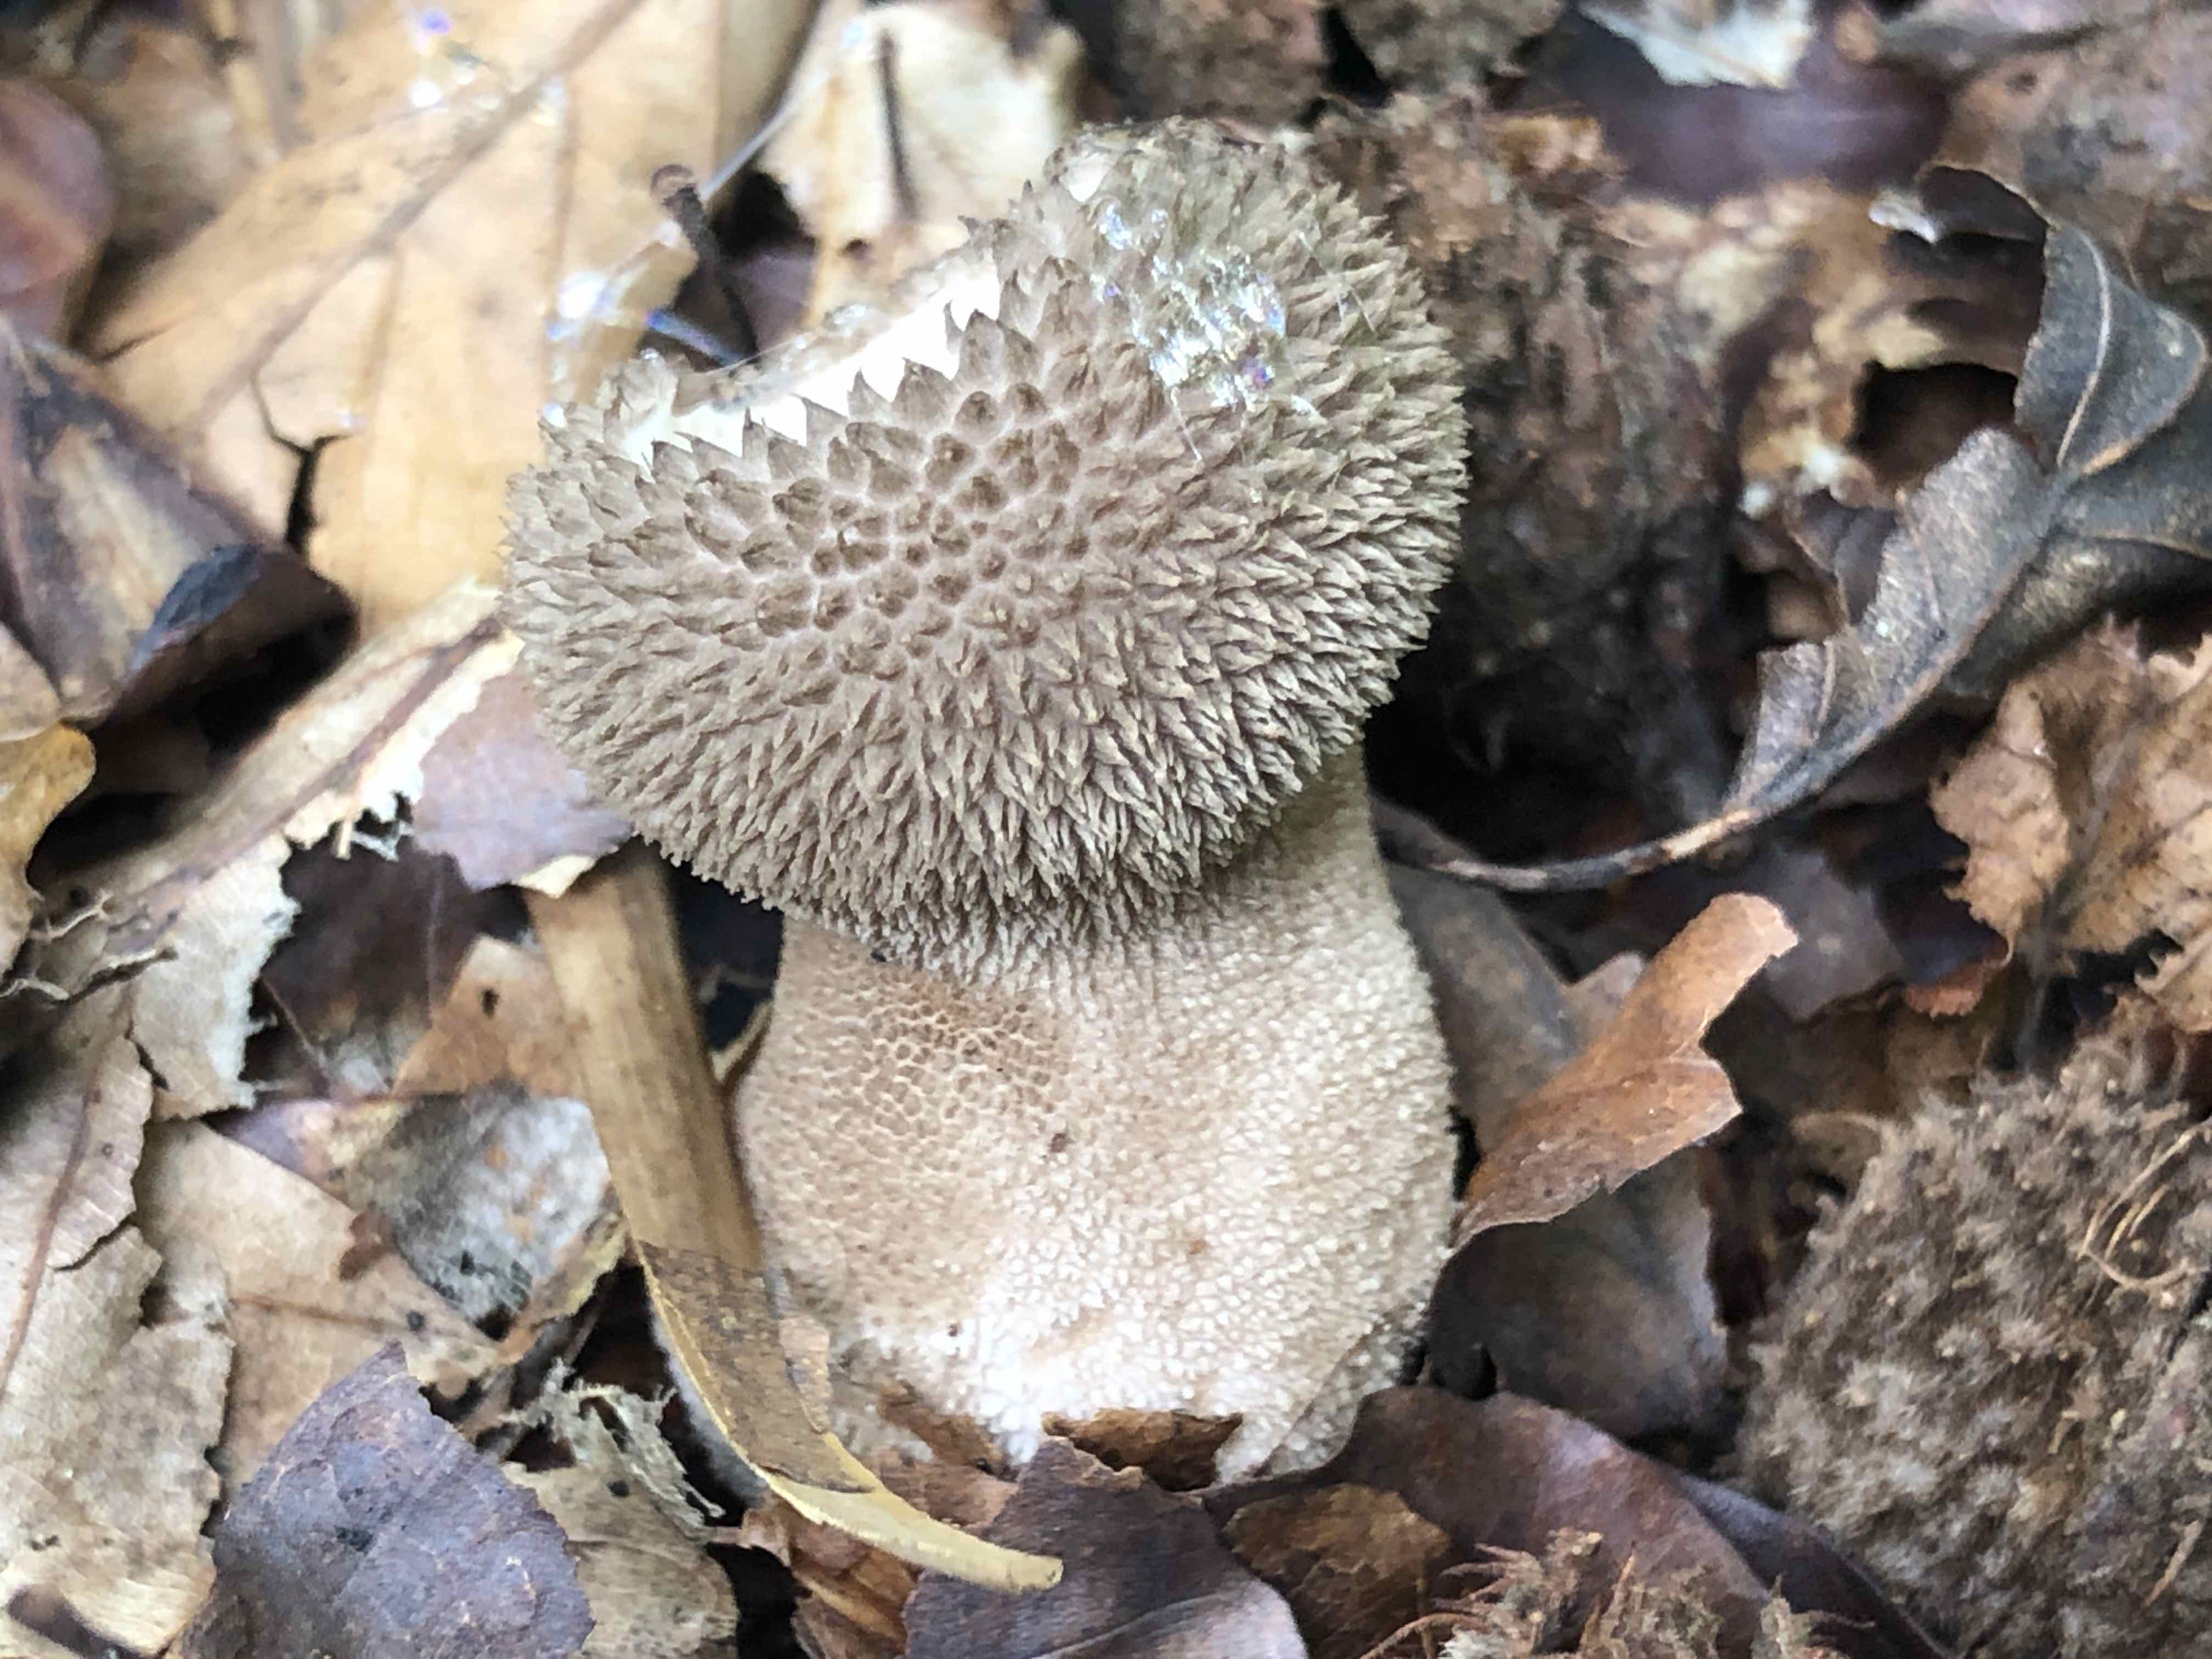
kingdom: Fungi
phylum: Basidiomycota
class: Agaricomycetes
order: Agaricales
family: Lycoperdaceae
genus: Lycoperdon
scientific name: Lycoperdon nigrescens
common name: sortagtig støvbold
